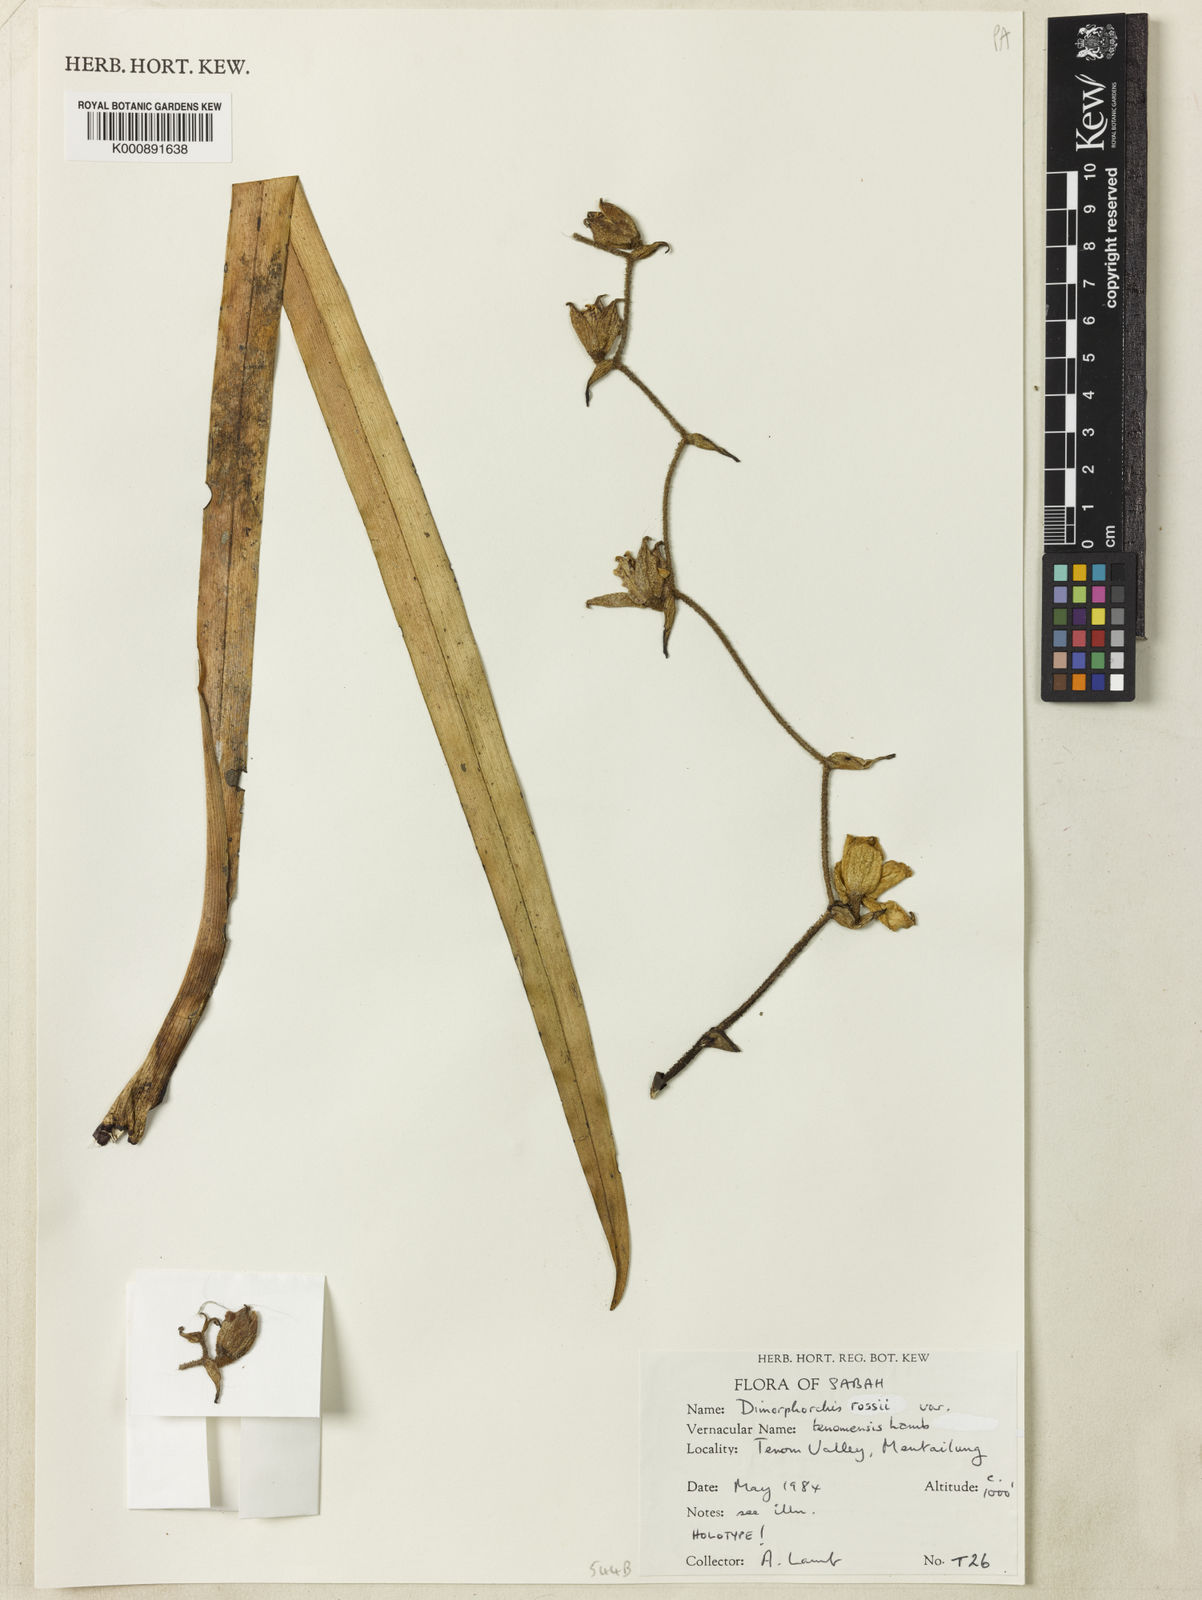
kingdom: Plantae
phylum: Tracheophyta
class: Liliopsida
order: Asparagales
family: Orchidaceae
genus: Dimorphorchis
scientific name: Dimorphorchis tenomensis
